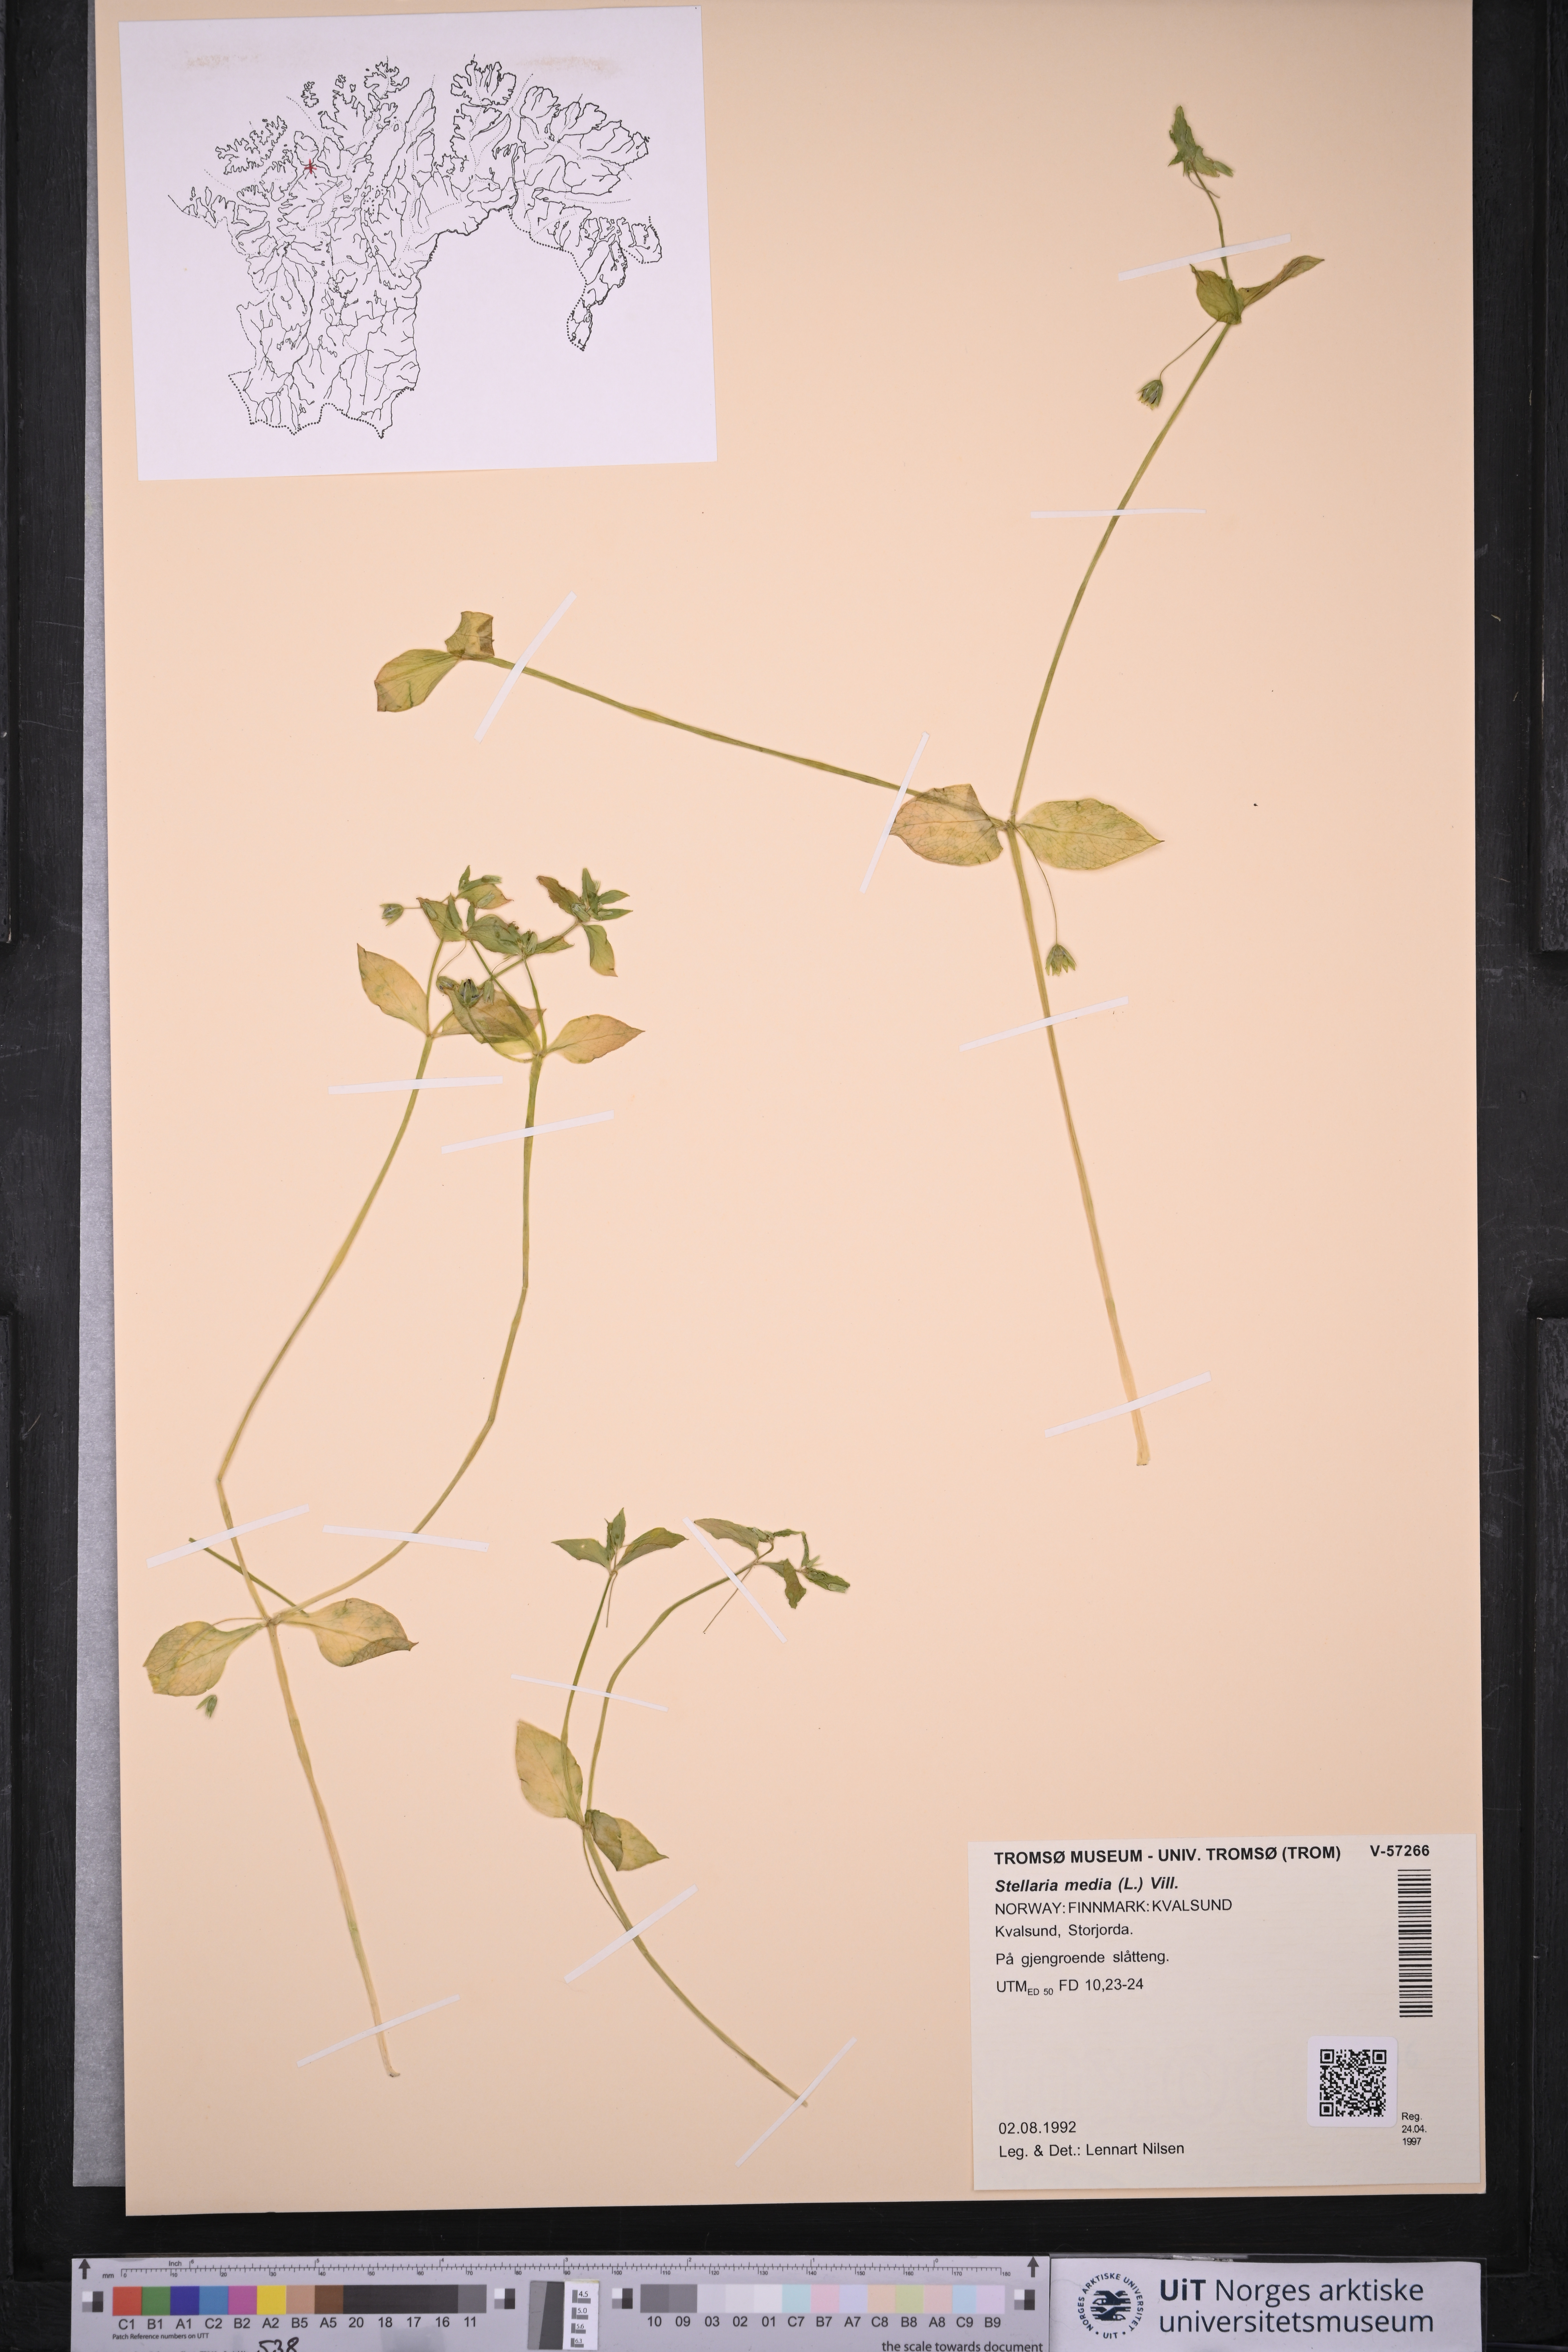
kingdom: Plantae
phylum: Tracheophyta
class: Magnoliopsida
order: Caryophyllales
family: Caryophyllaceae
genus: Stellaria
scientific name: Stellaria media
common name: Common chickweed
